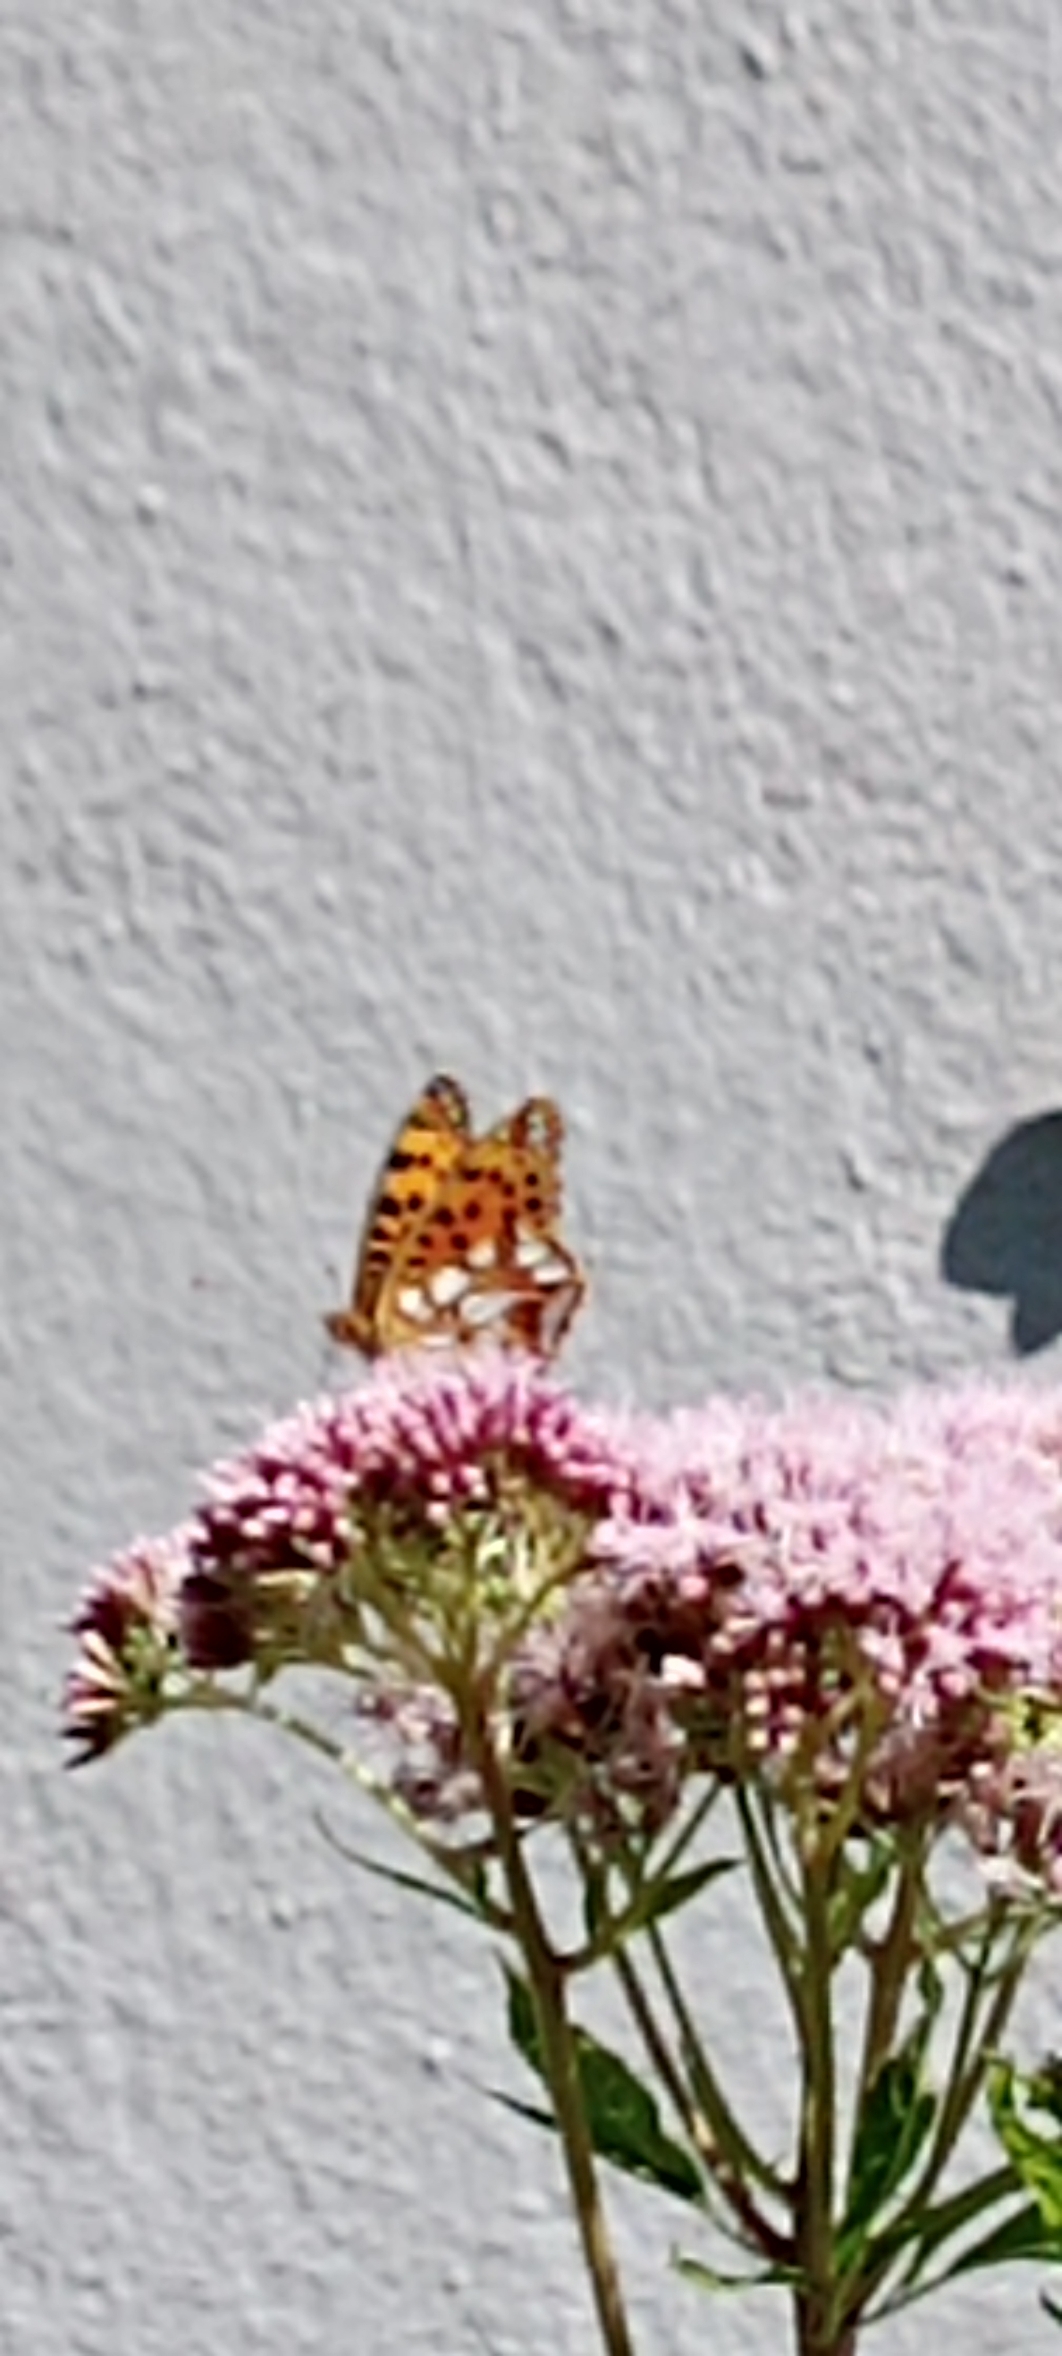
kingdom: Animalia
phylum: Arthropoda
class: Insecta
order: Lepidoptera
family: Nymphalidae
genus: Issoria
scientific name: Issoria lathonia
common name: Storplettet perlemorsommerfugl
